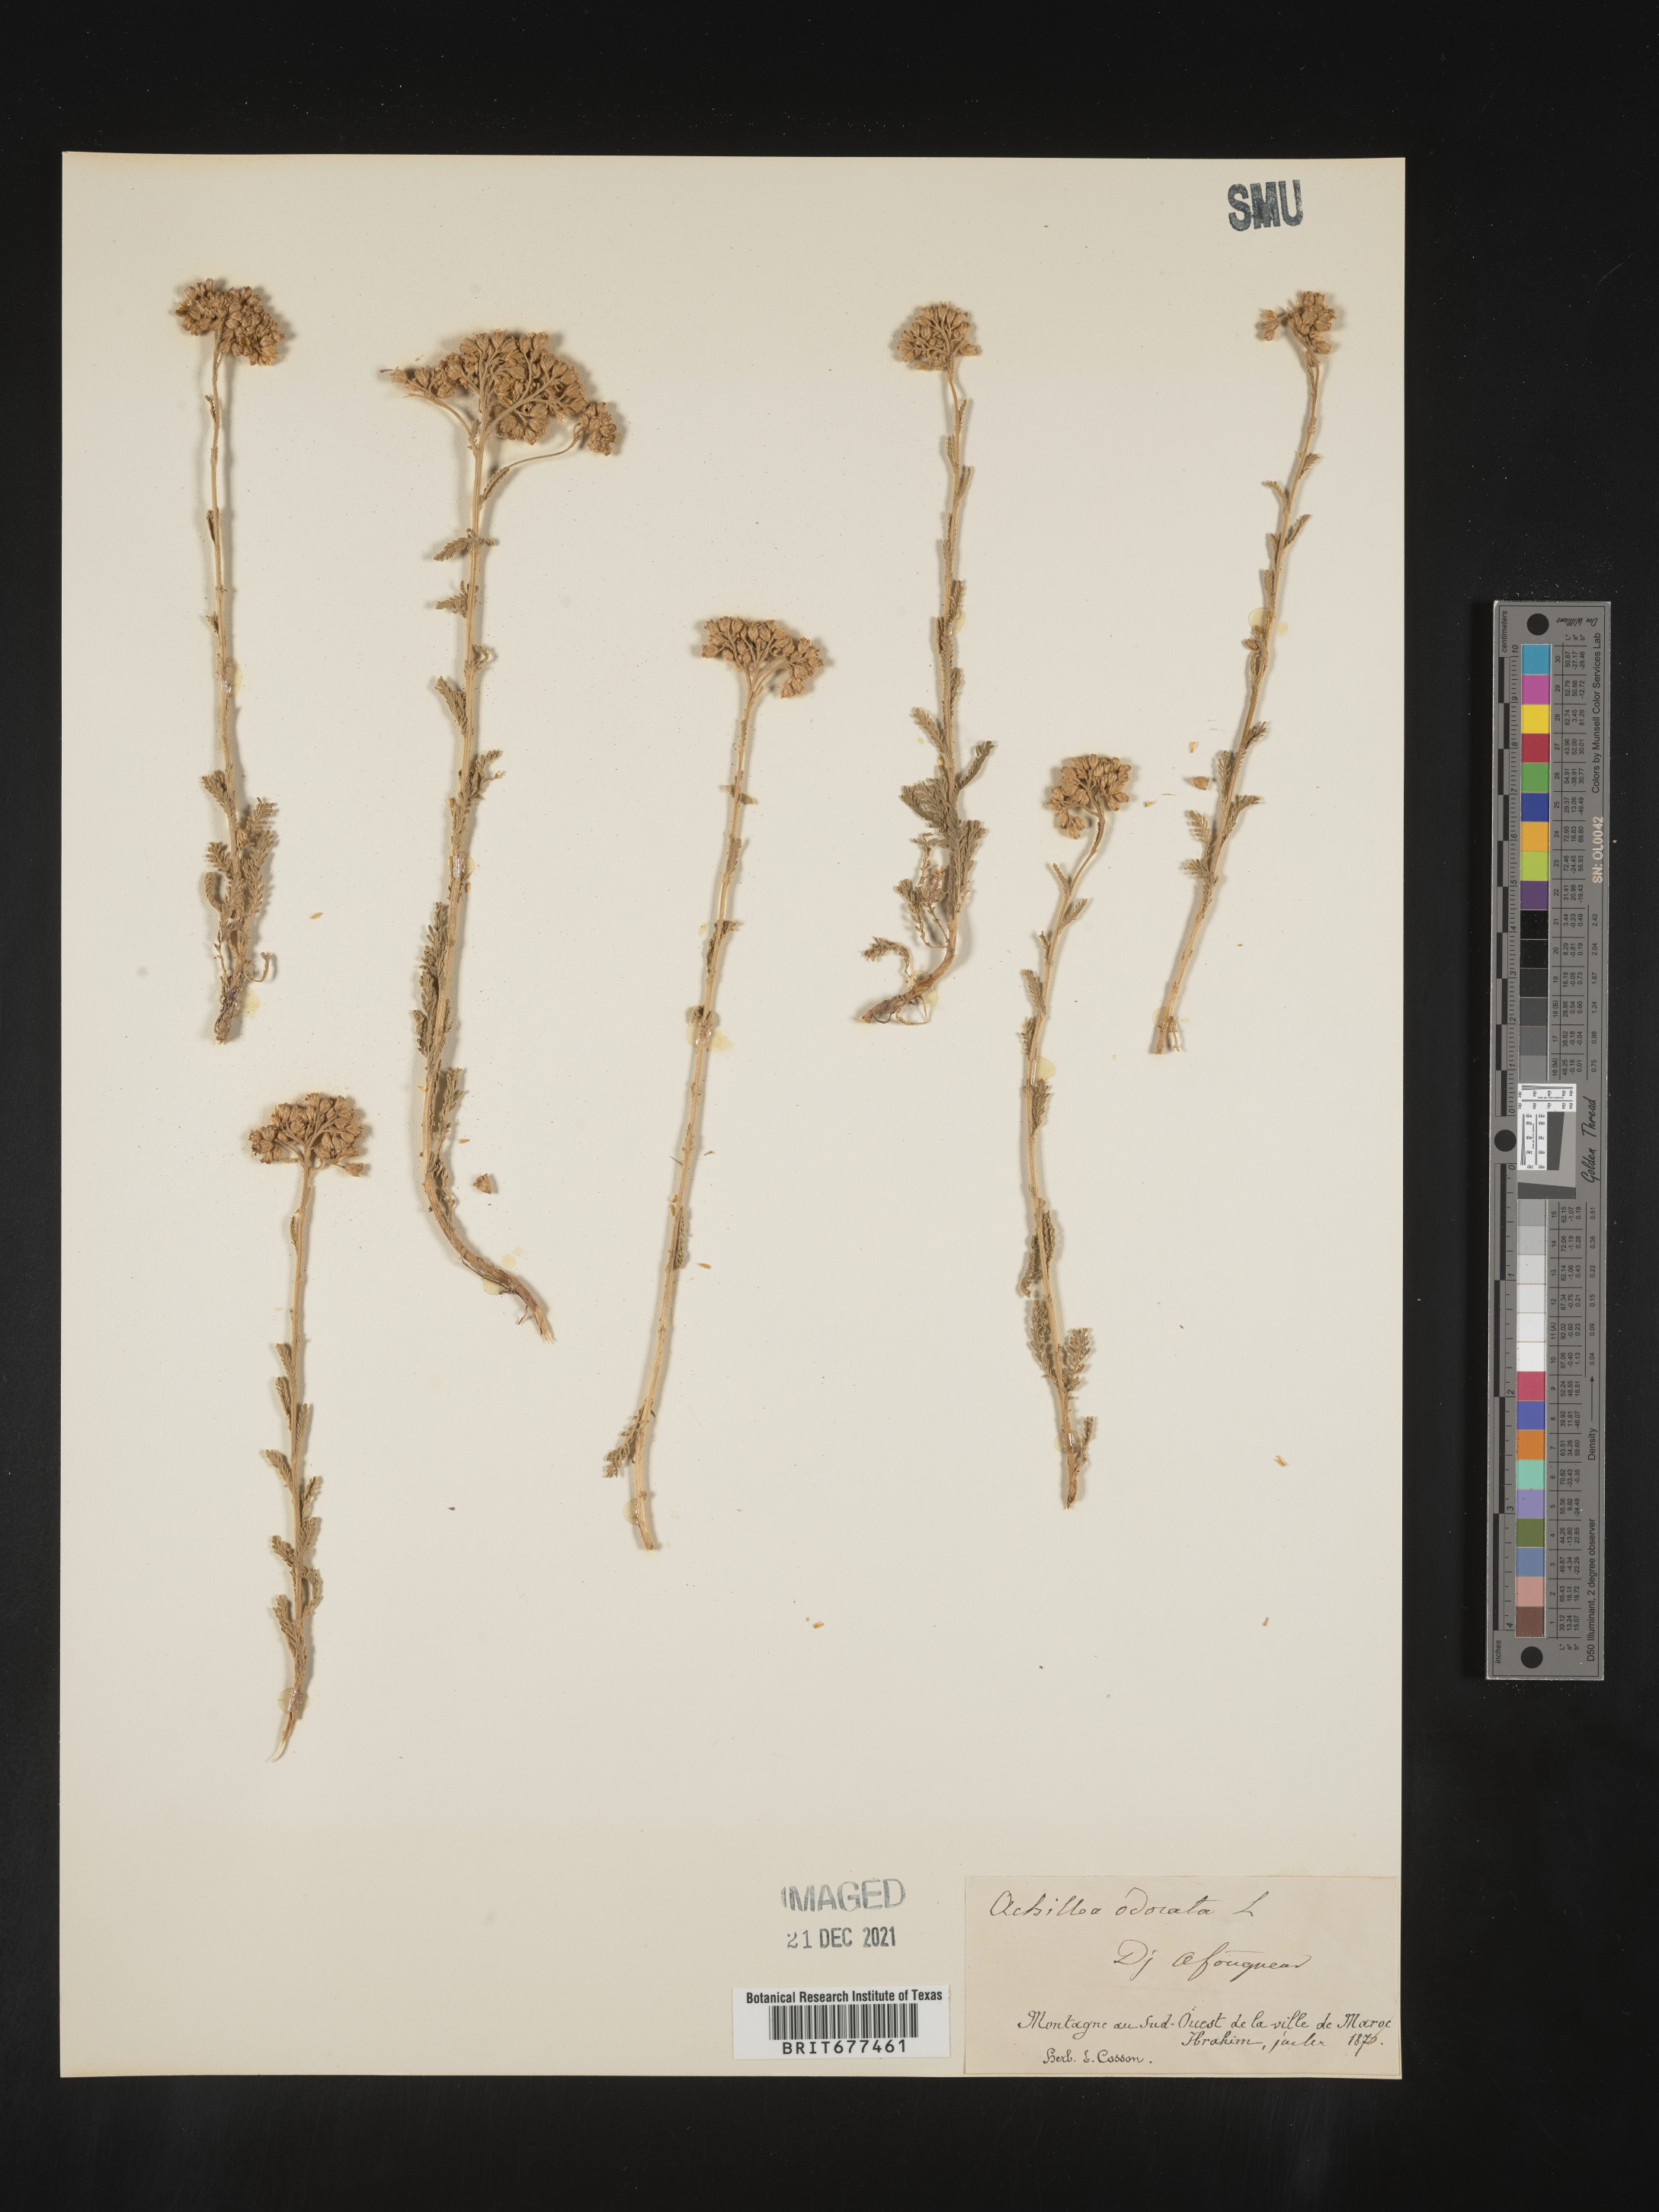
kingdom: Plantae
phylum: Tracheophyta
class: Magnoliopsida
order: Asterales
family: Asteraceae
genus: Achillea
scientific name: Achillea odorata
